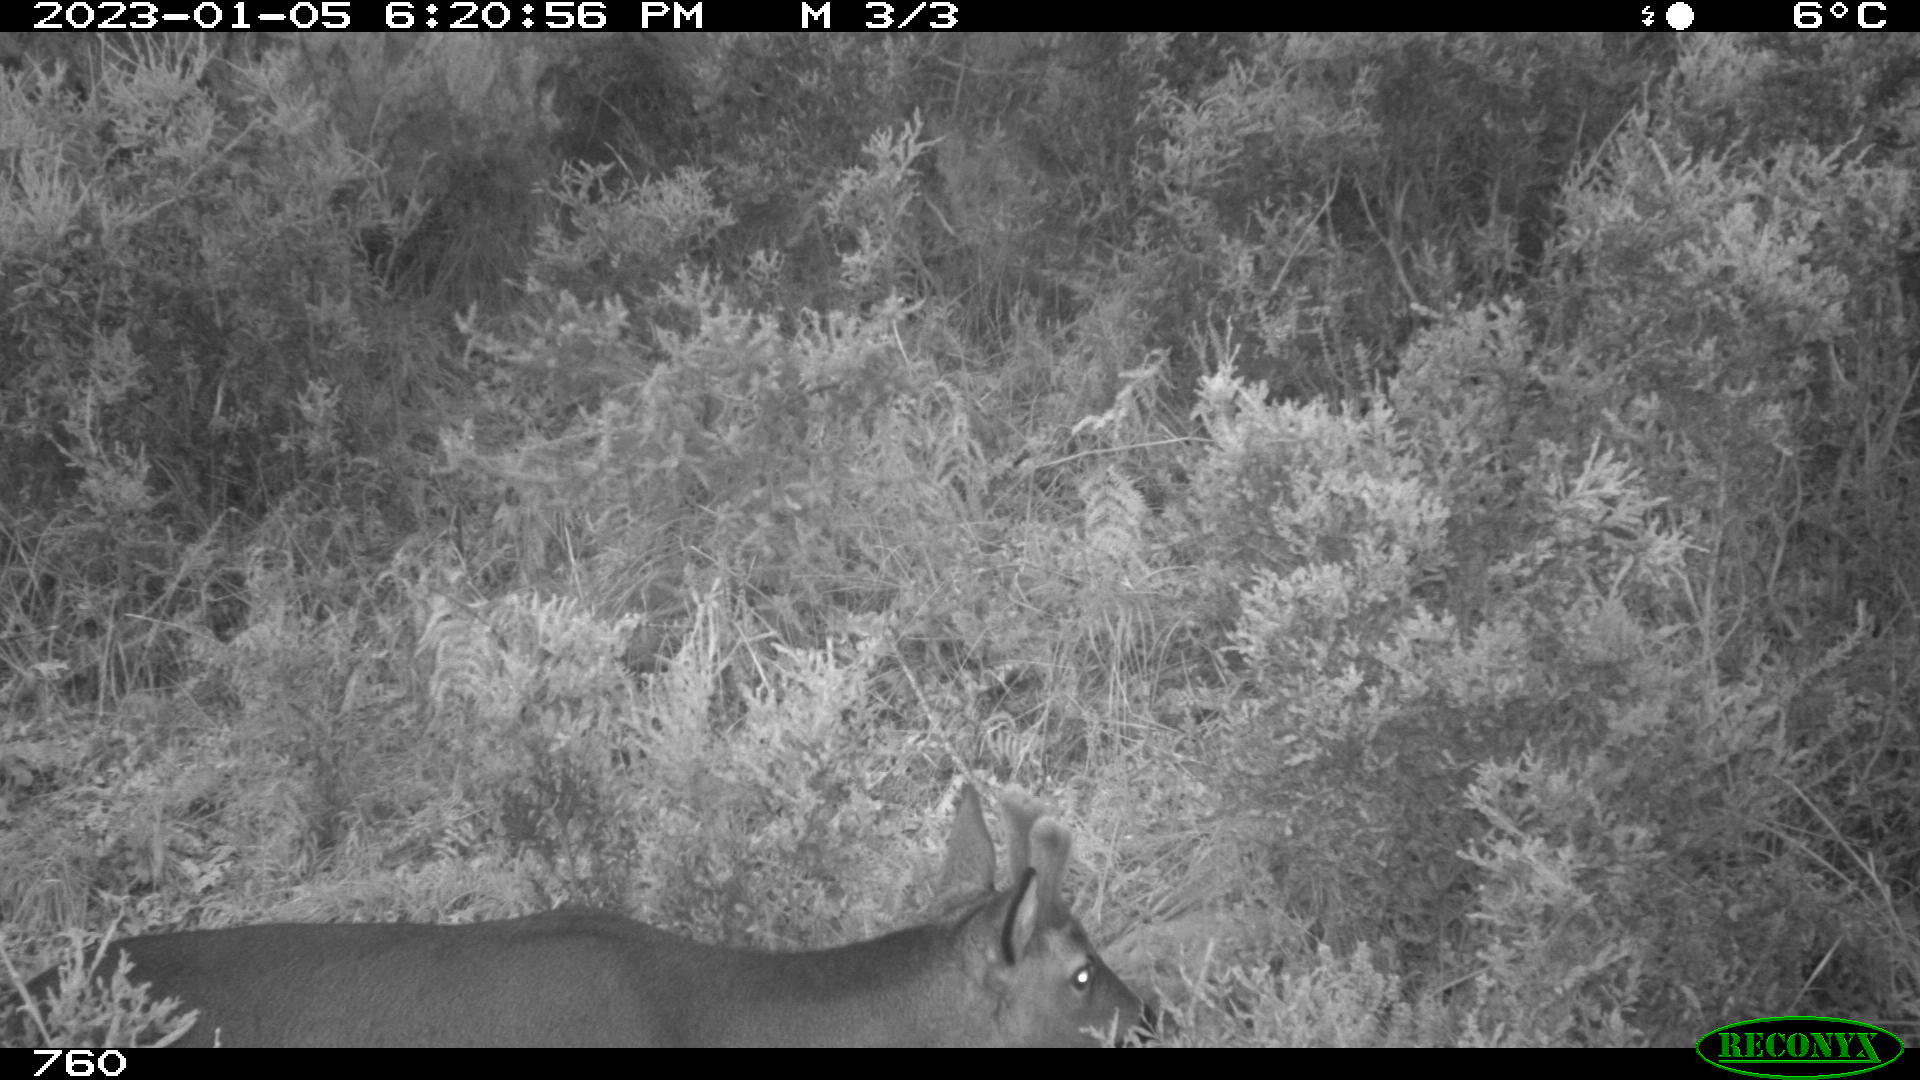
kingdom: Animalia
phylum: Chordata
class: Mammalia
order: Artiodactyla
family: Cervidae
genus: Capreolus
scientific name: Capreolus capreolus
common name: Western roe deer
